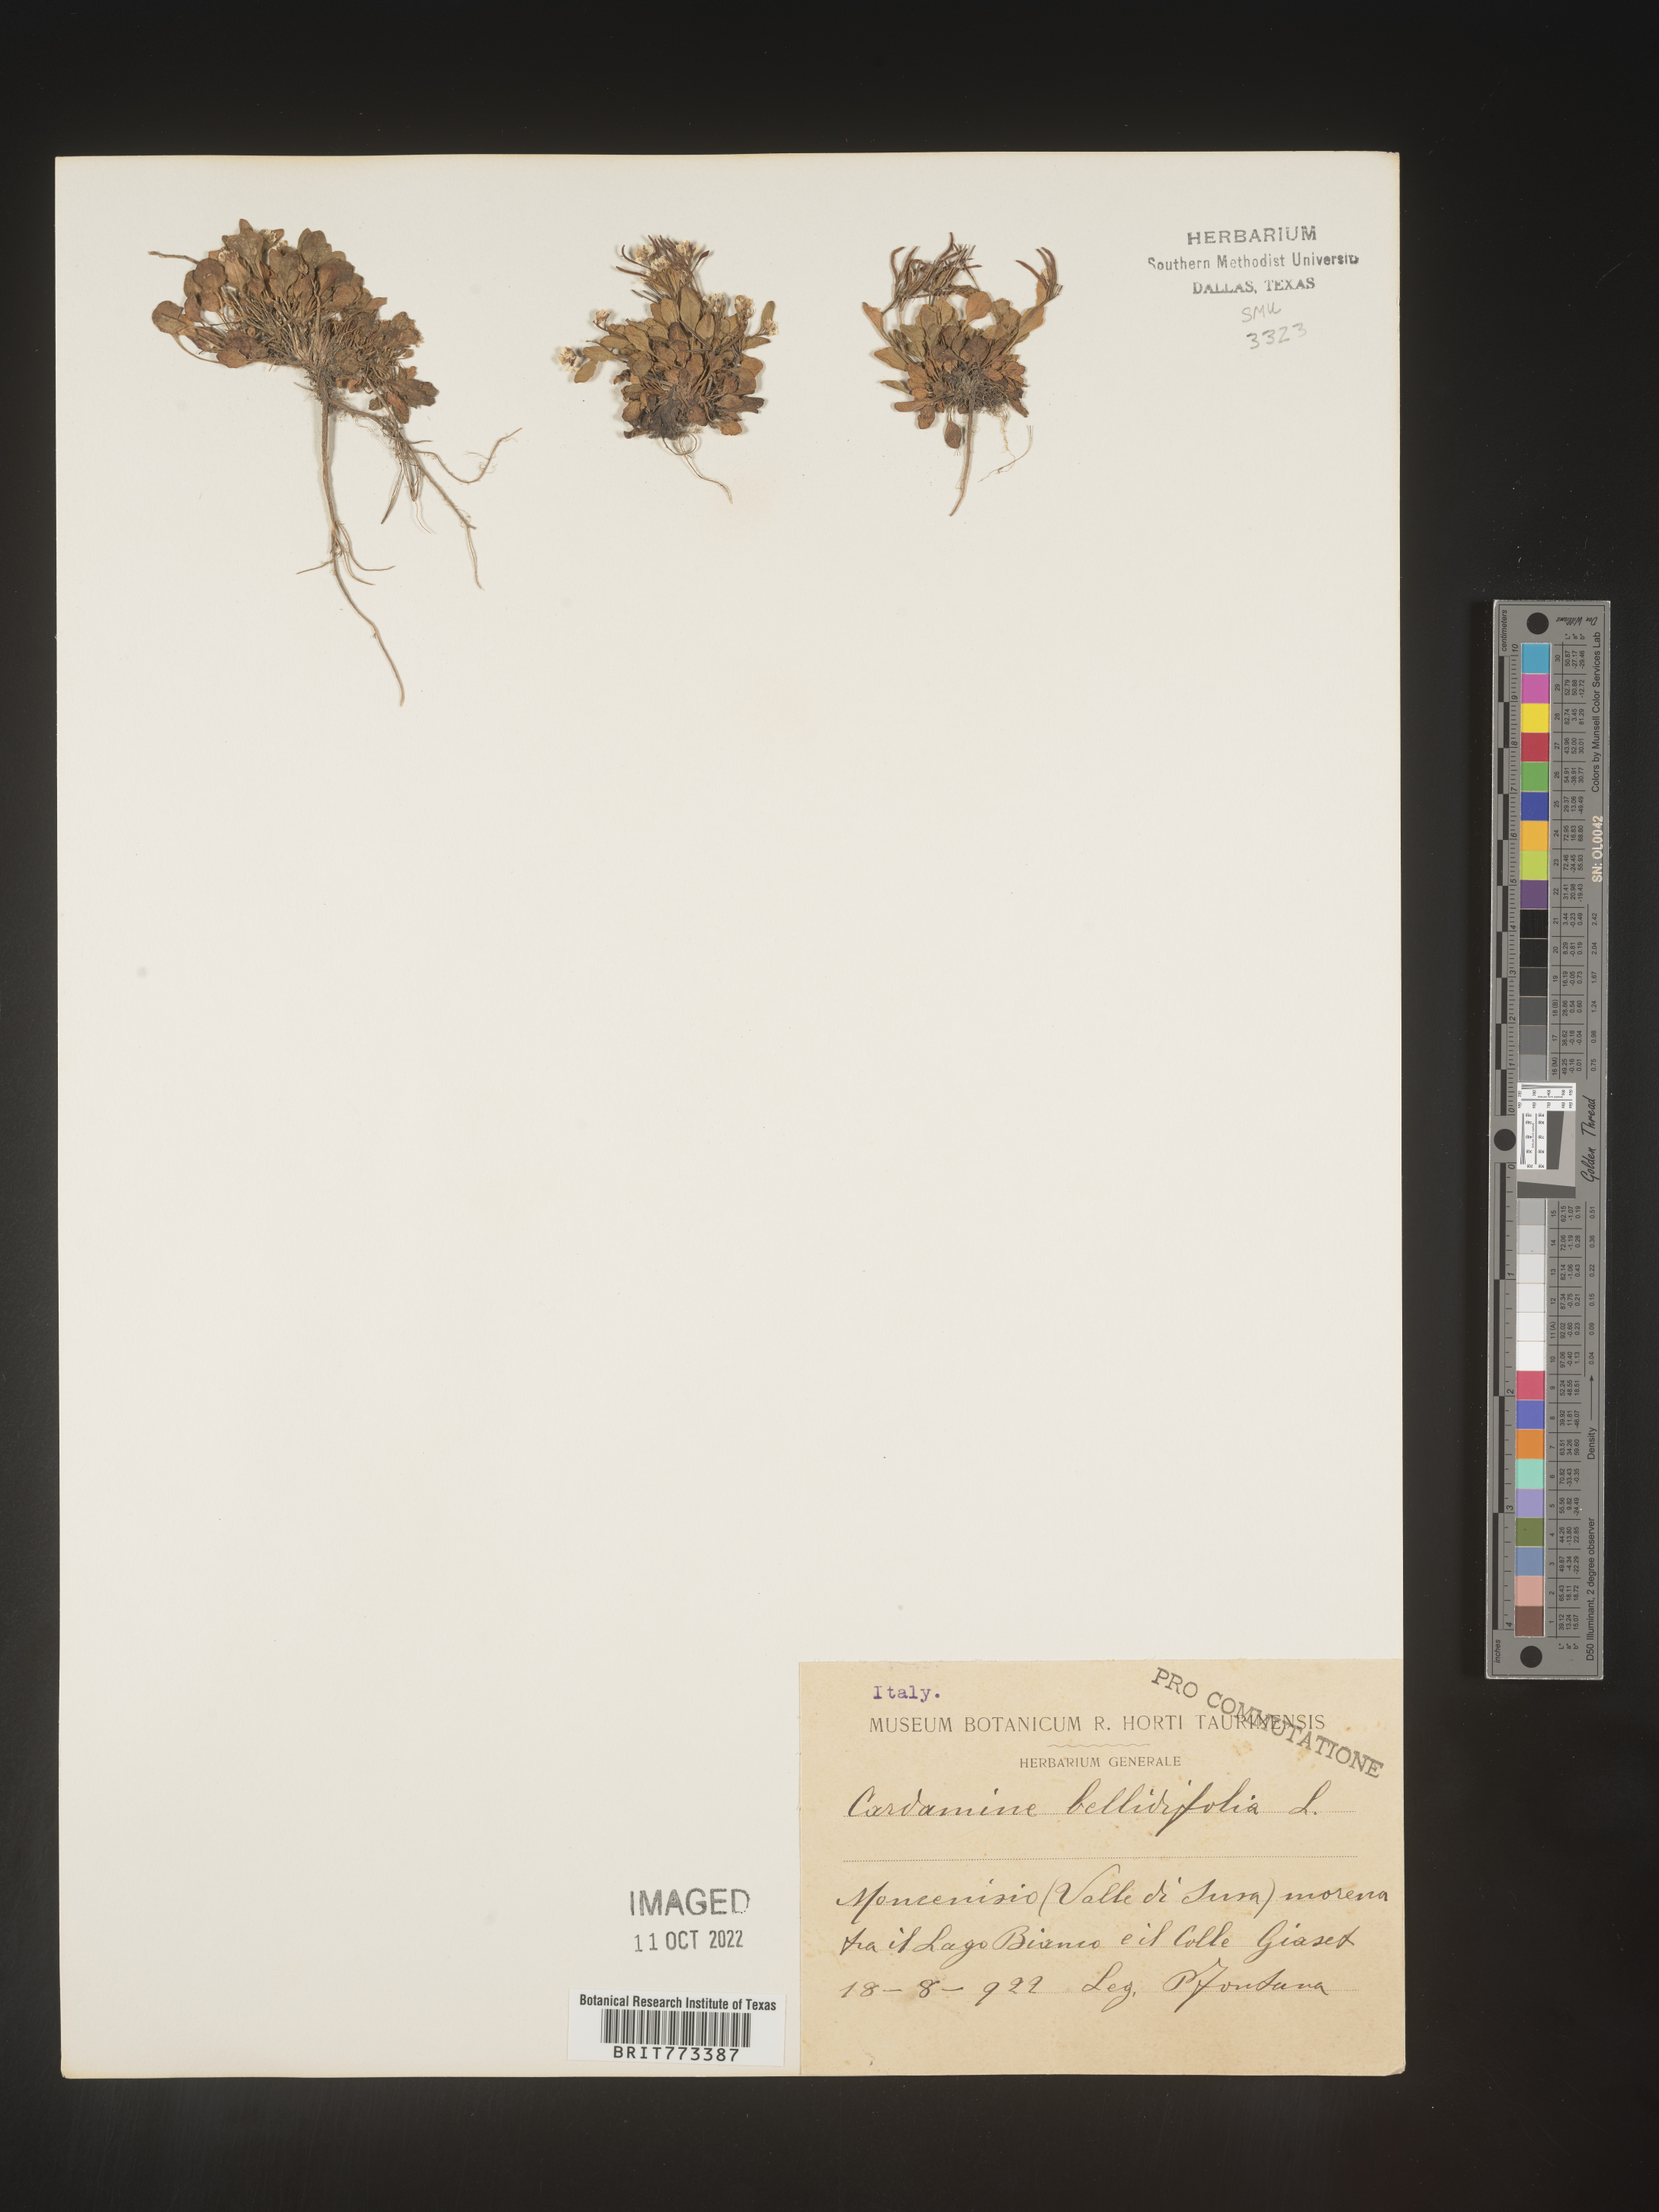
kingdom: Plantae
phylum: Tracheophyta
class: Magnoliopsida
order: Brassicales
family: Brassicaceae
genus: Cardamine
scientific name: Cardamine
